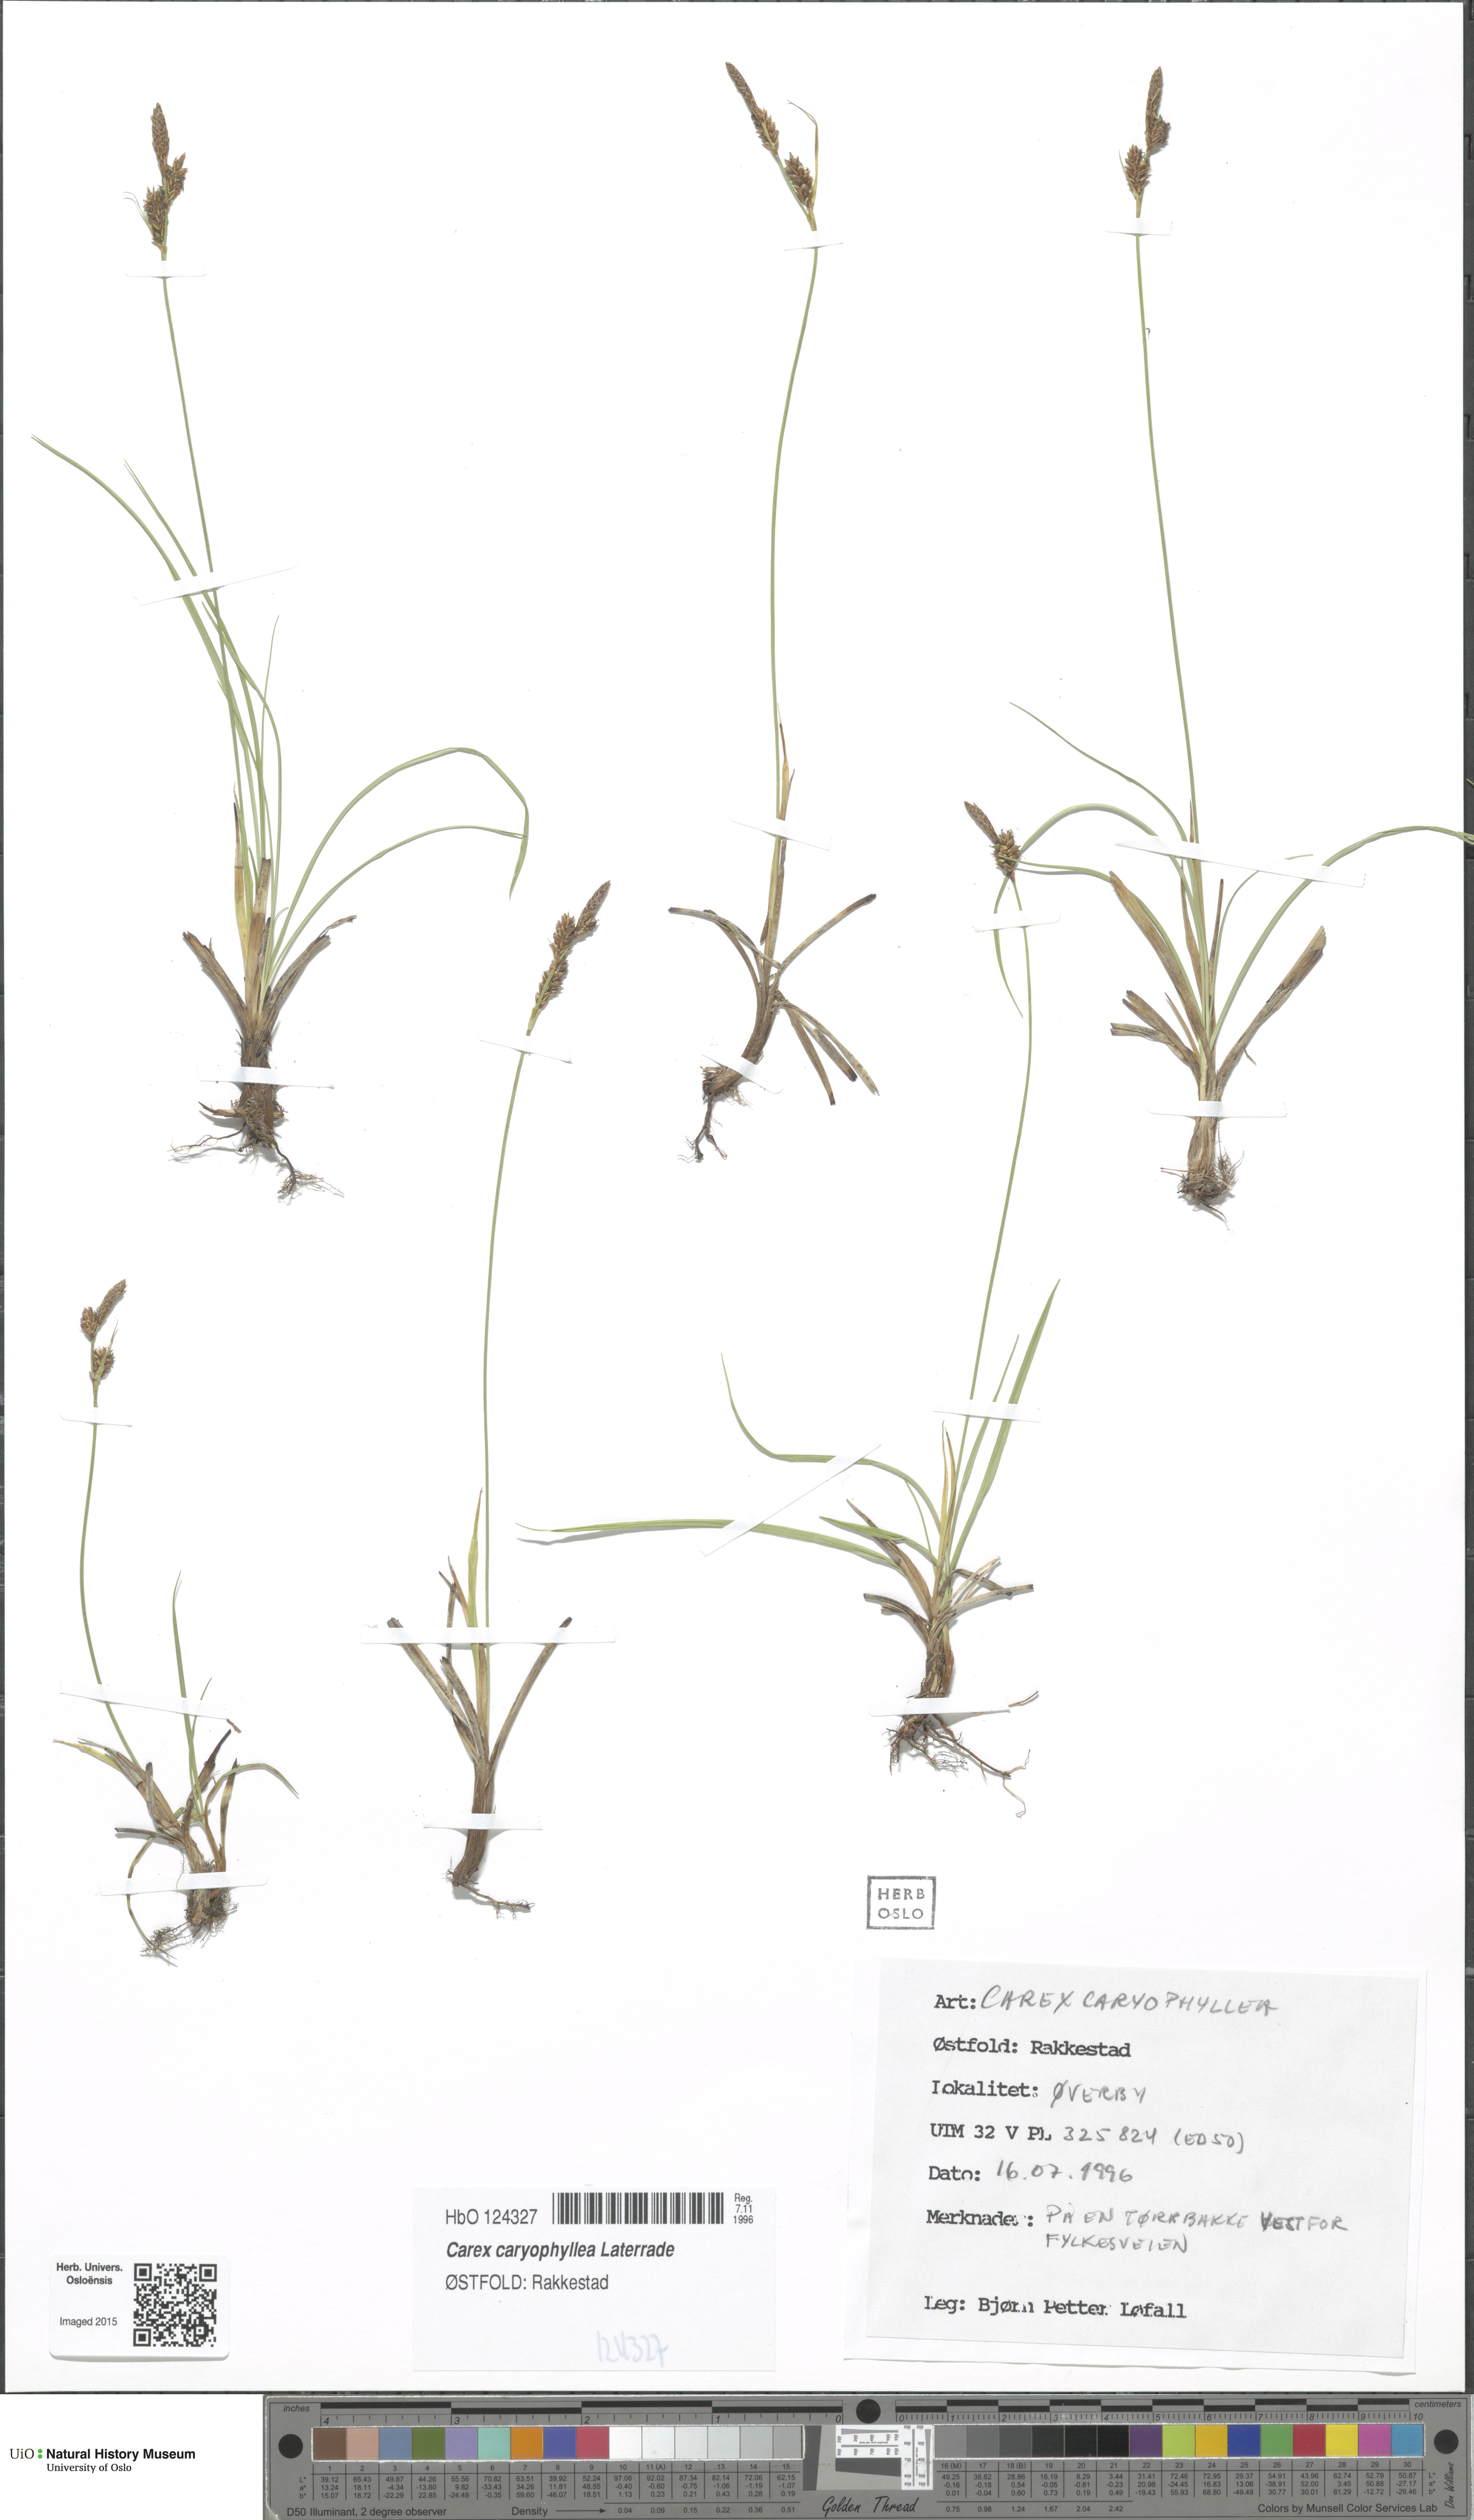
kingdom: Plantae
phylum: Tracheophyta
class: Liliopsida
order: Poales
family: Cyperaceae
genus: Carex
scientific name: Carex caryophyllea
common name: Spring sedge
